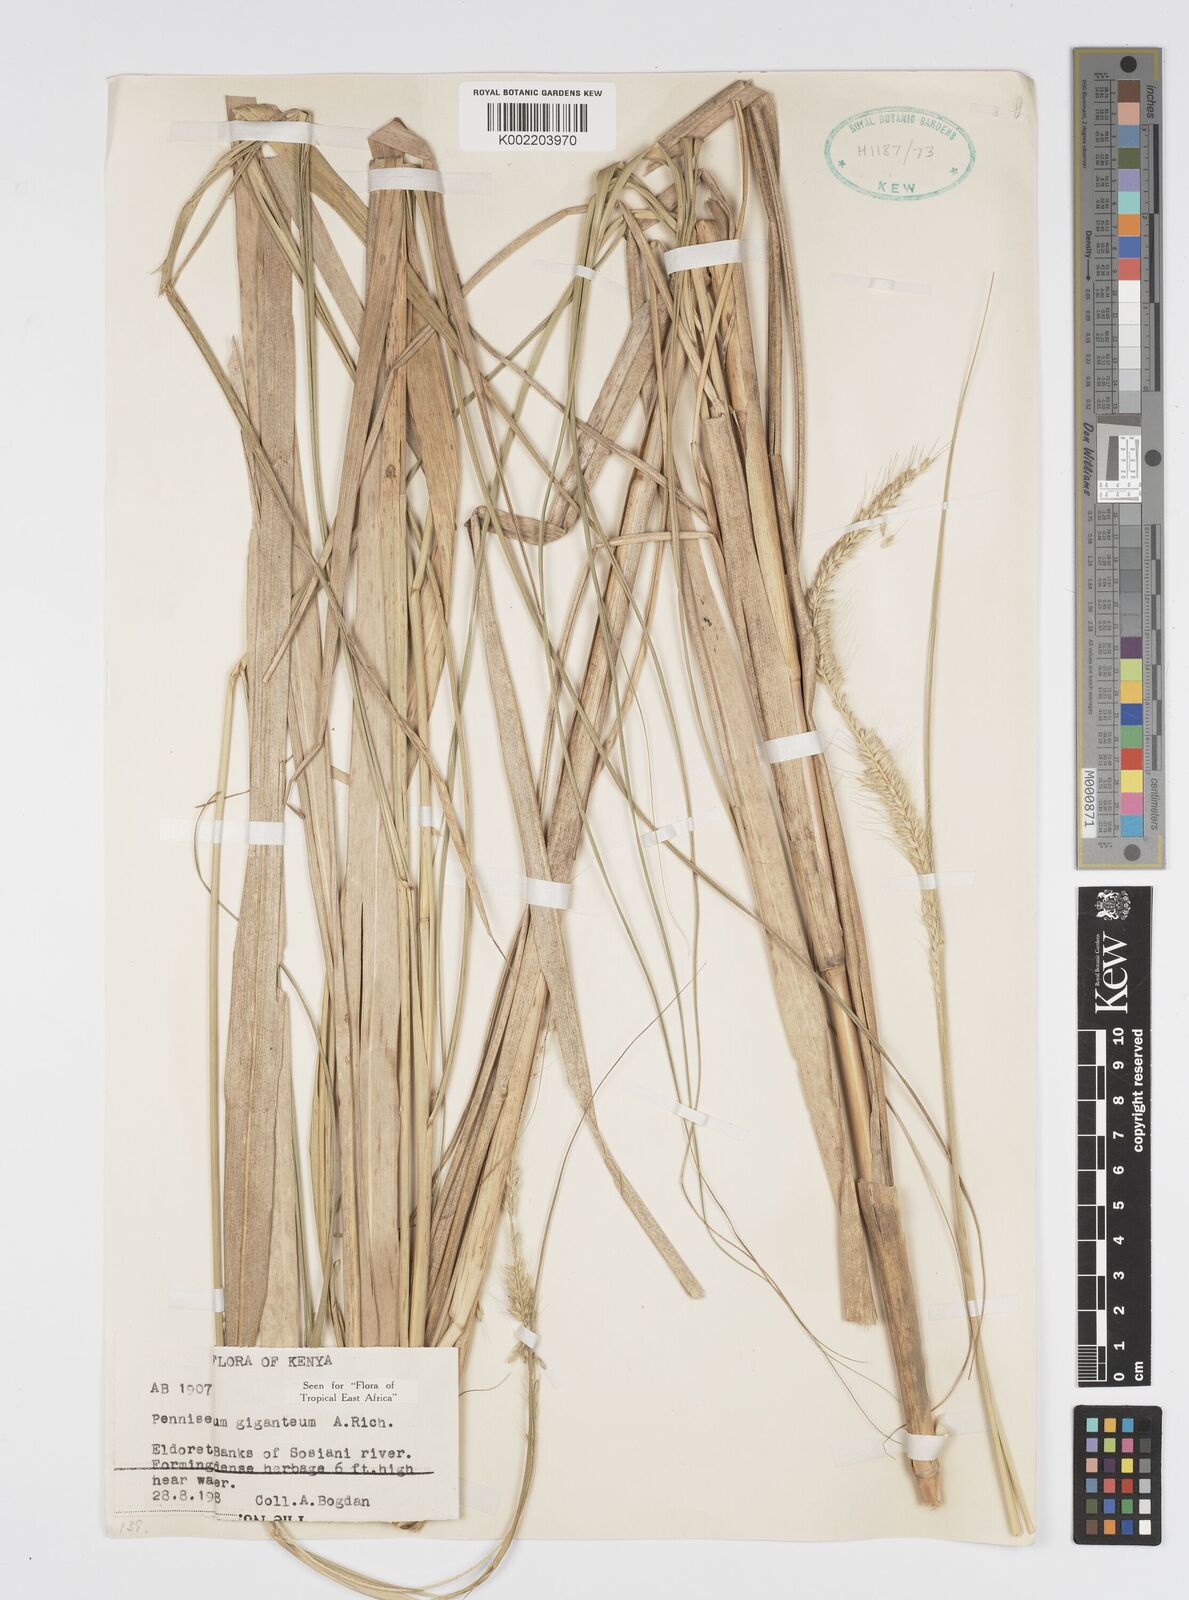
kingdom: Plantae
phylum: Tracheophyta
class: Liliopsida
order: Poales
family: Poaceae
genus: Cenchrus
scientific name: Cenchrus caudatus
